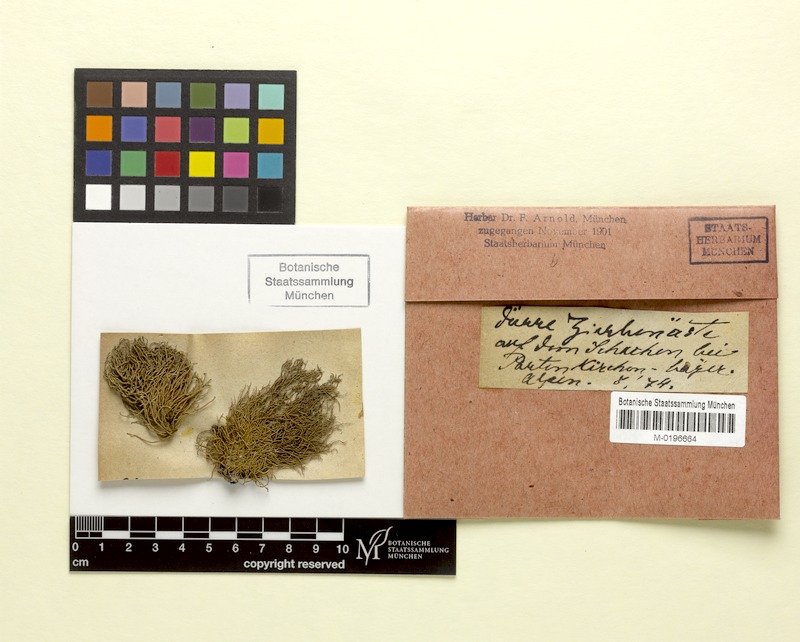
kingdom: Fungi
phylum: Ascomycota
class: Lecanoromycetes
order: Lecanorales
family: Parmeliaceae
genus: Usnea
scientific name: Usnea hirta
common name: Bristly beard lichen
